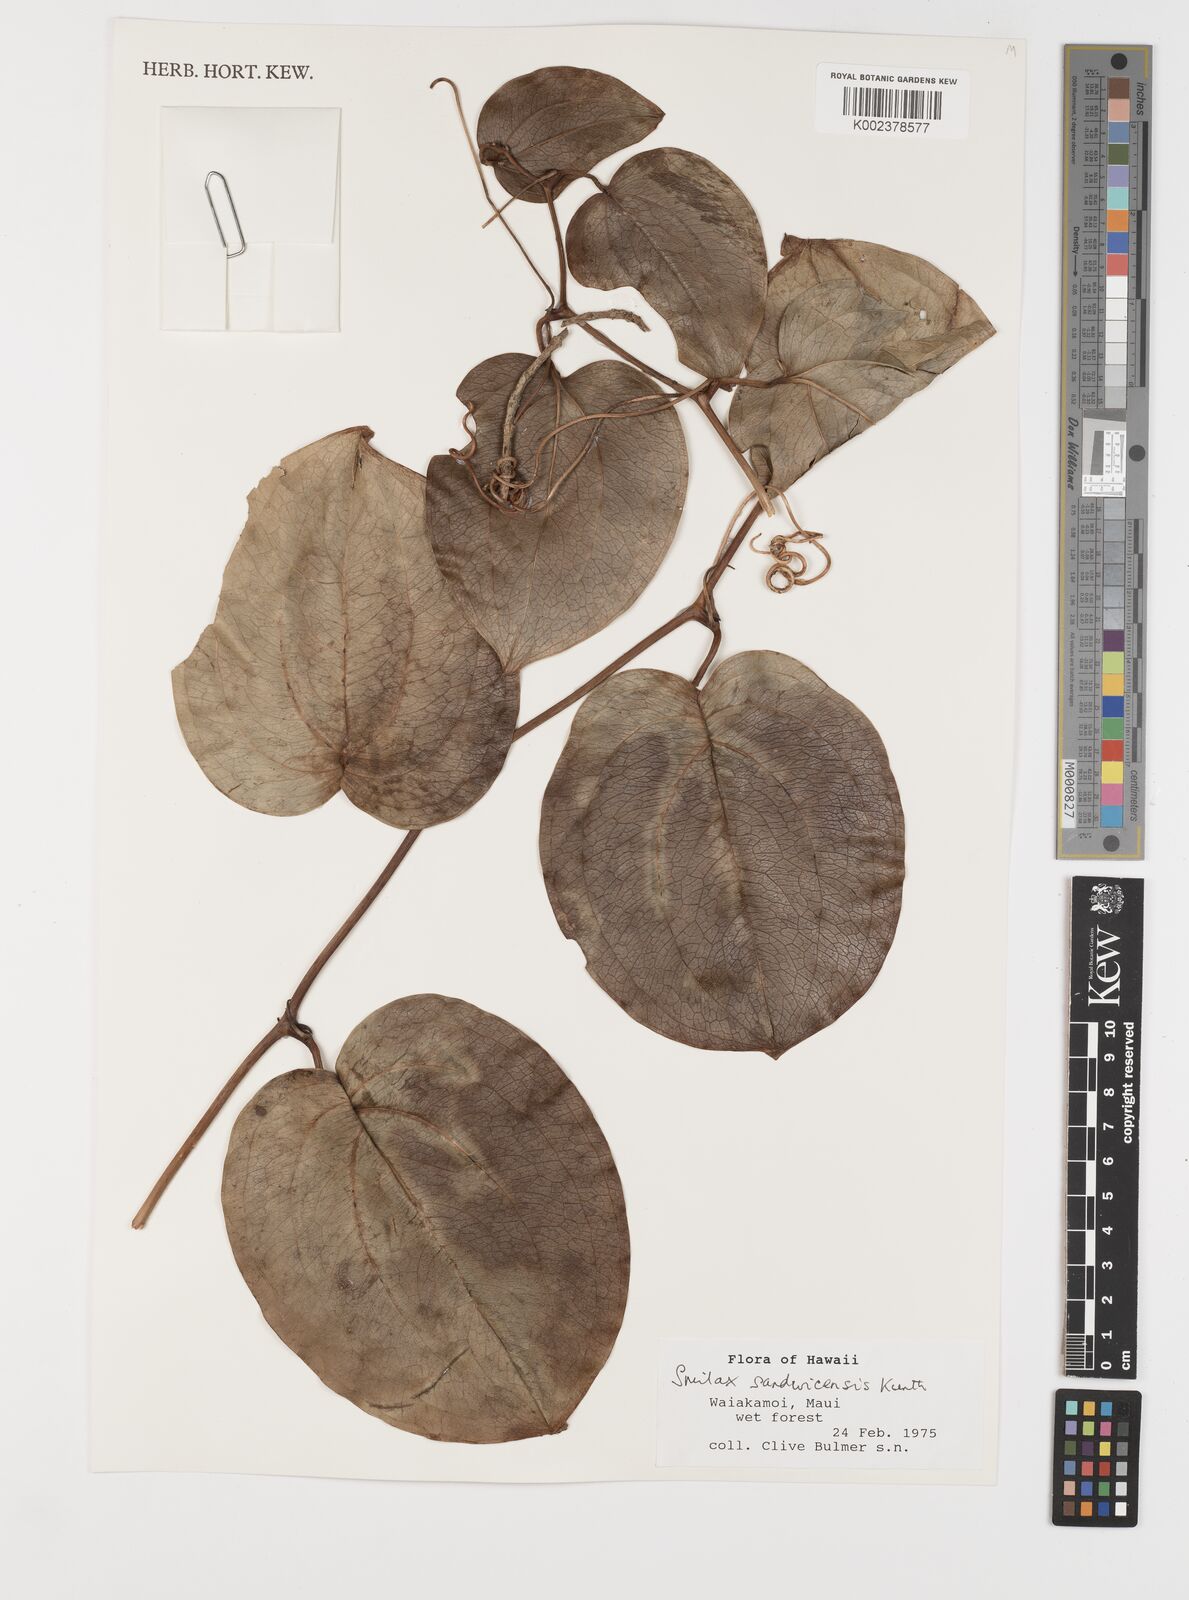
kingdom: Plantae
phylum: Tracheophyta
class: Liliopsida
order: Liliales
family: Smilacaceae
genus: Smilax
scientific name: Smilax melastomifolia
